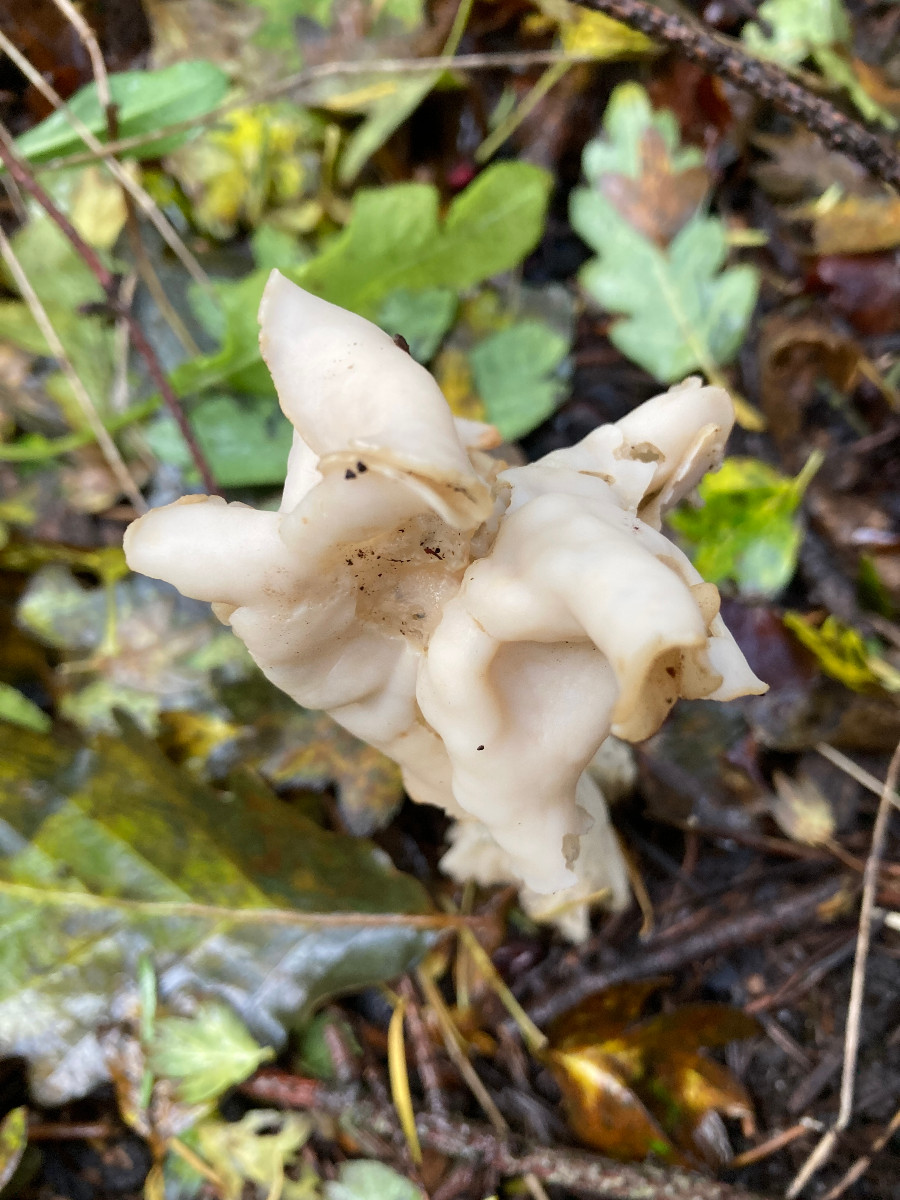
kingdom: Fungi
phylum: Ascomycota
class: Pezizomycetes
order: Pezizales
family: Helvellaceae
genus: Helvella
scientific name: Helvella crispa
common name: kruset foldhat
